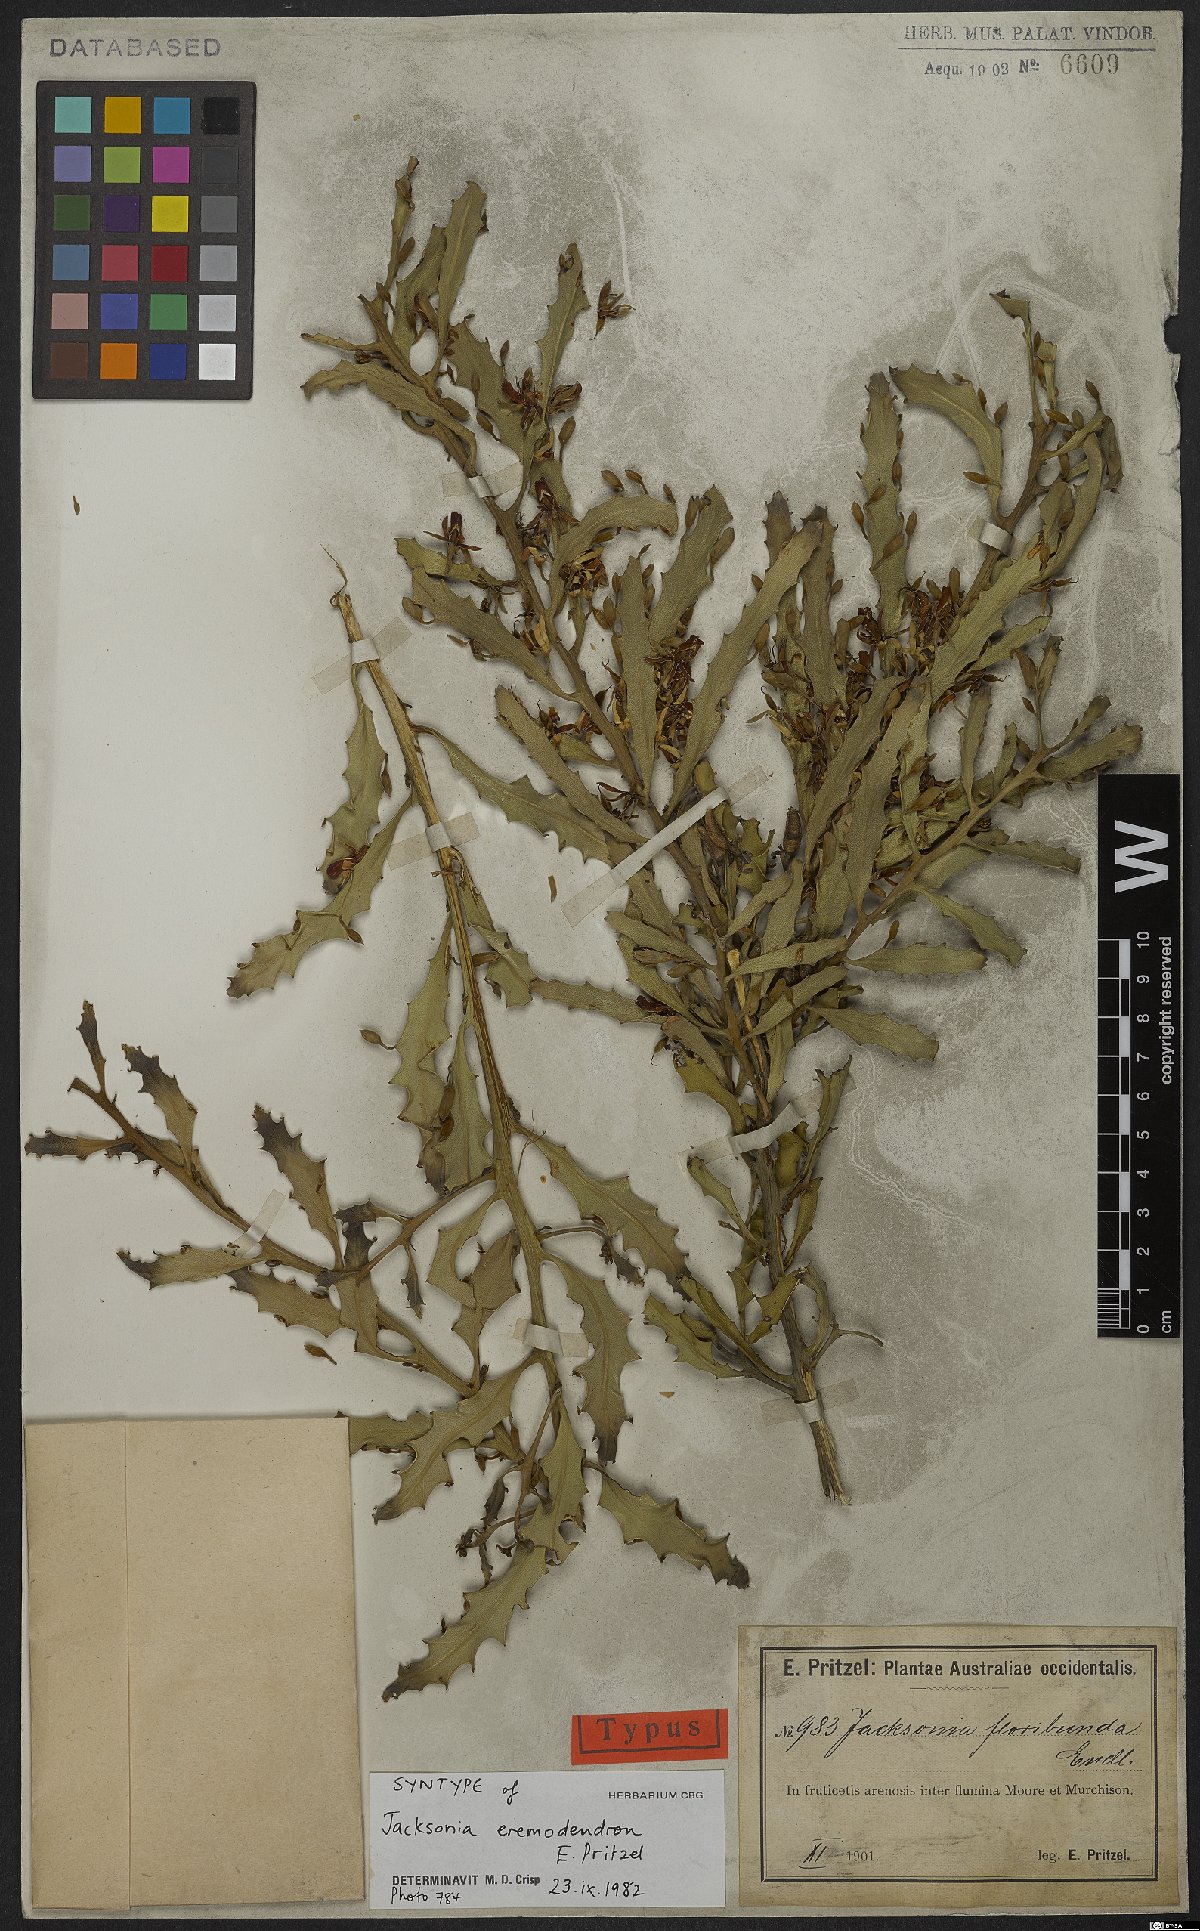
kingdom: Plantae
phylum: Tracheophyta
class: Magnoliopsida
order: Fabales
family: Fabaceae
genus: Jacksonia
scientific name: Jacksonia eremodendron
